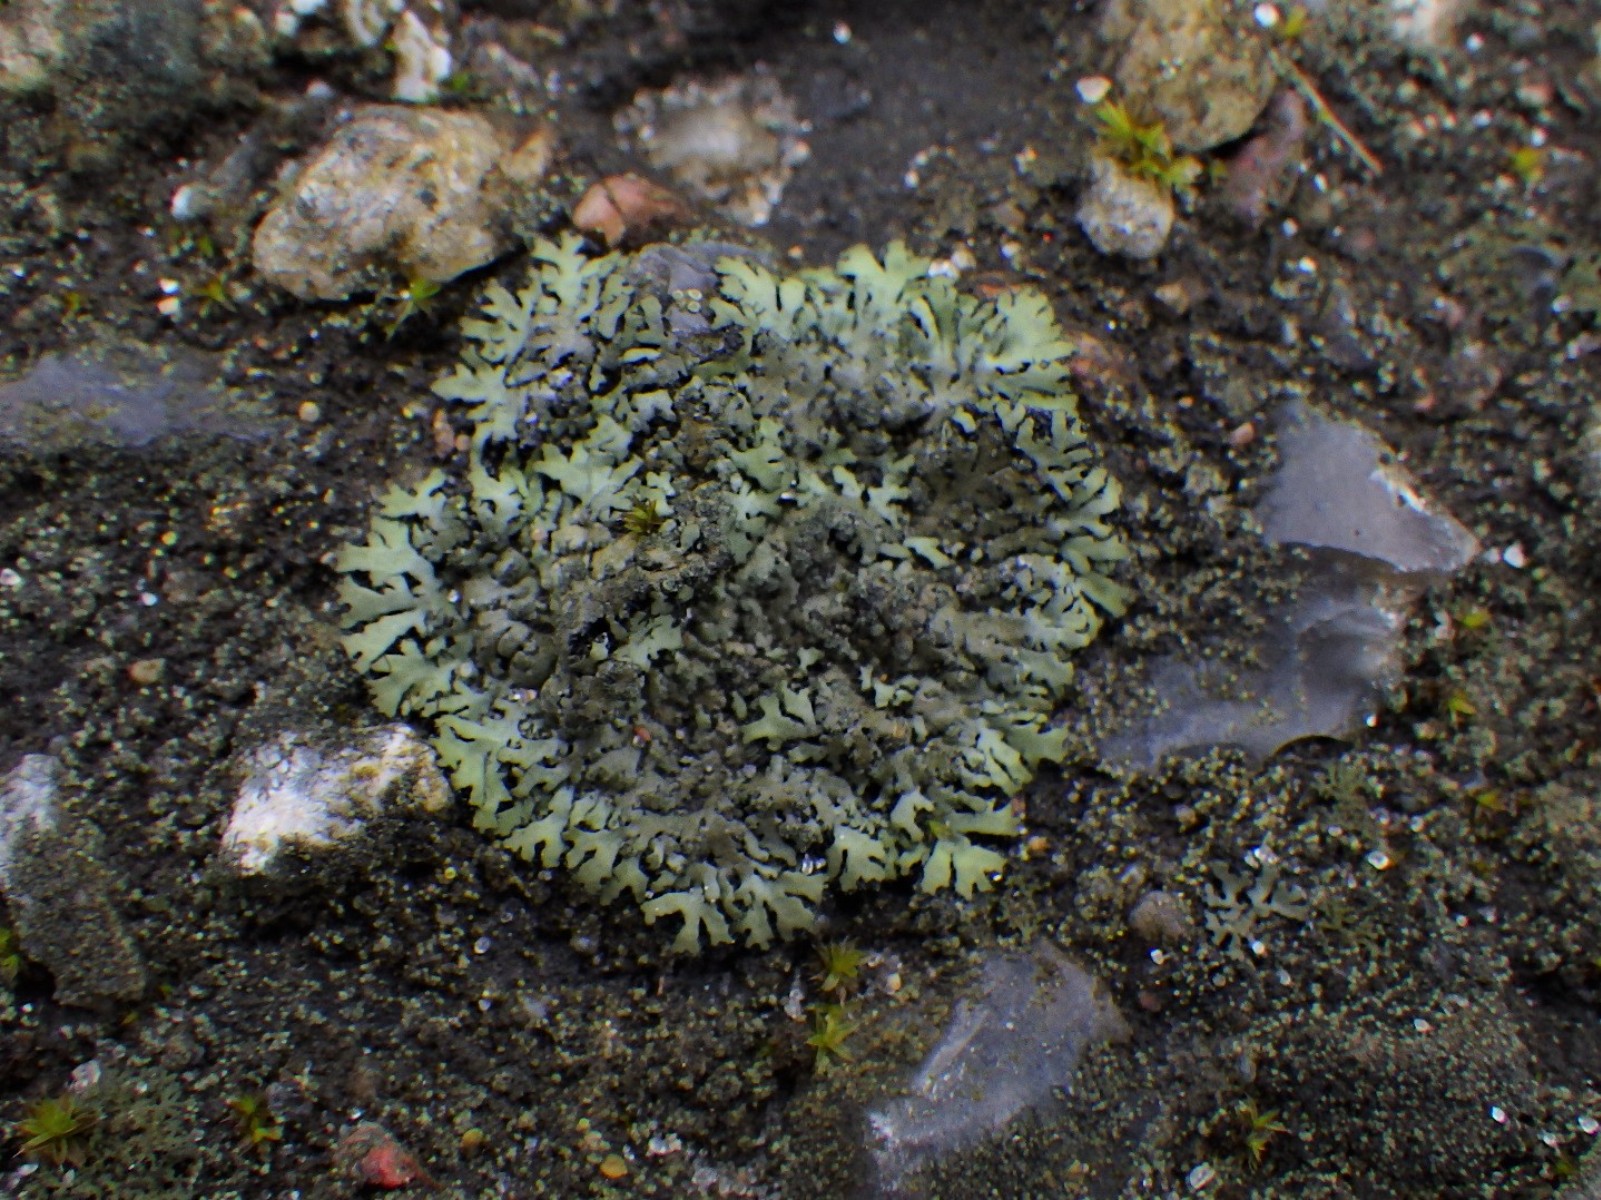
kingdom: Fungi
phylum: Ascomycota
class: Lecanoromycetes
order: Caliciales
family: Physciaceae
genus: Phaeophyscia
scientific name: Phaeophyscia orbicularis
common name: grågrøn rosetlav
